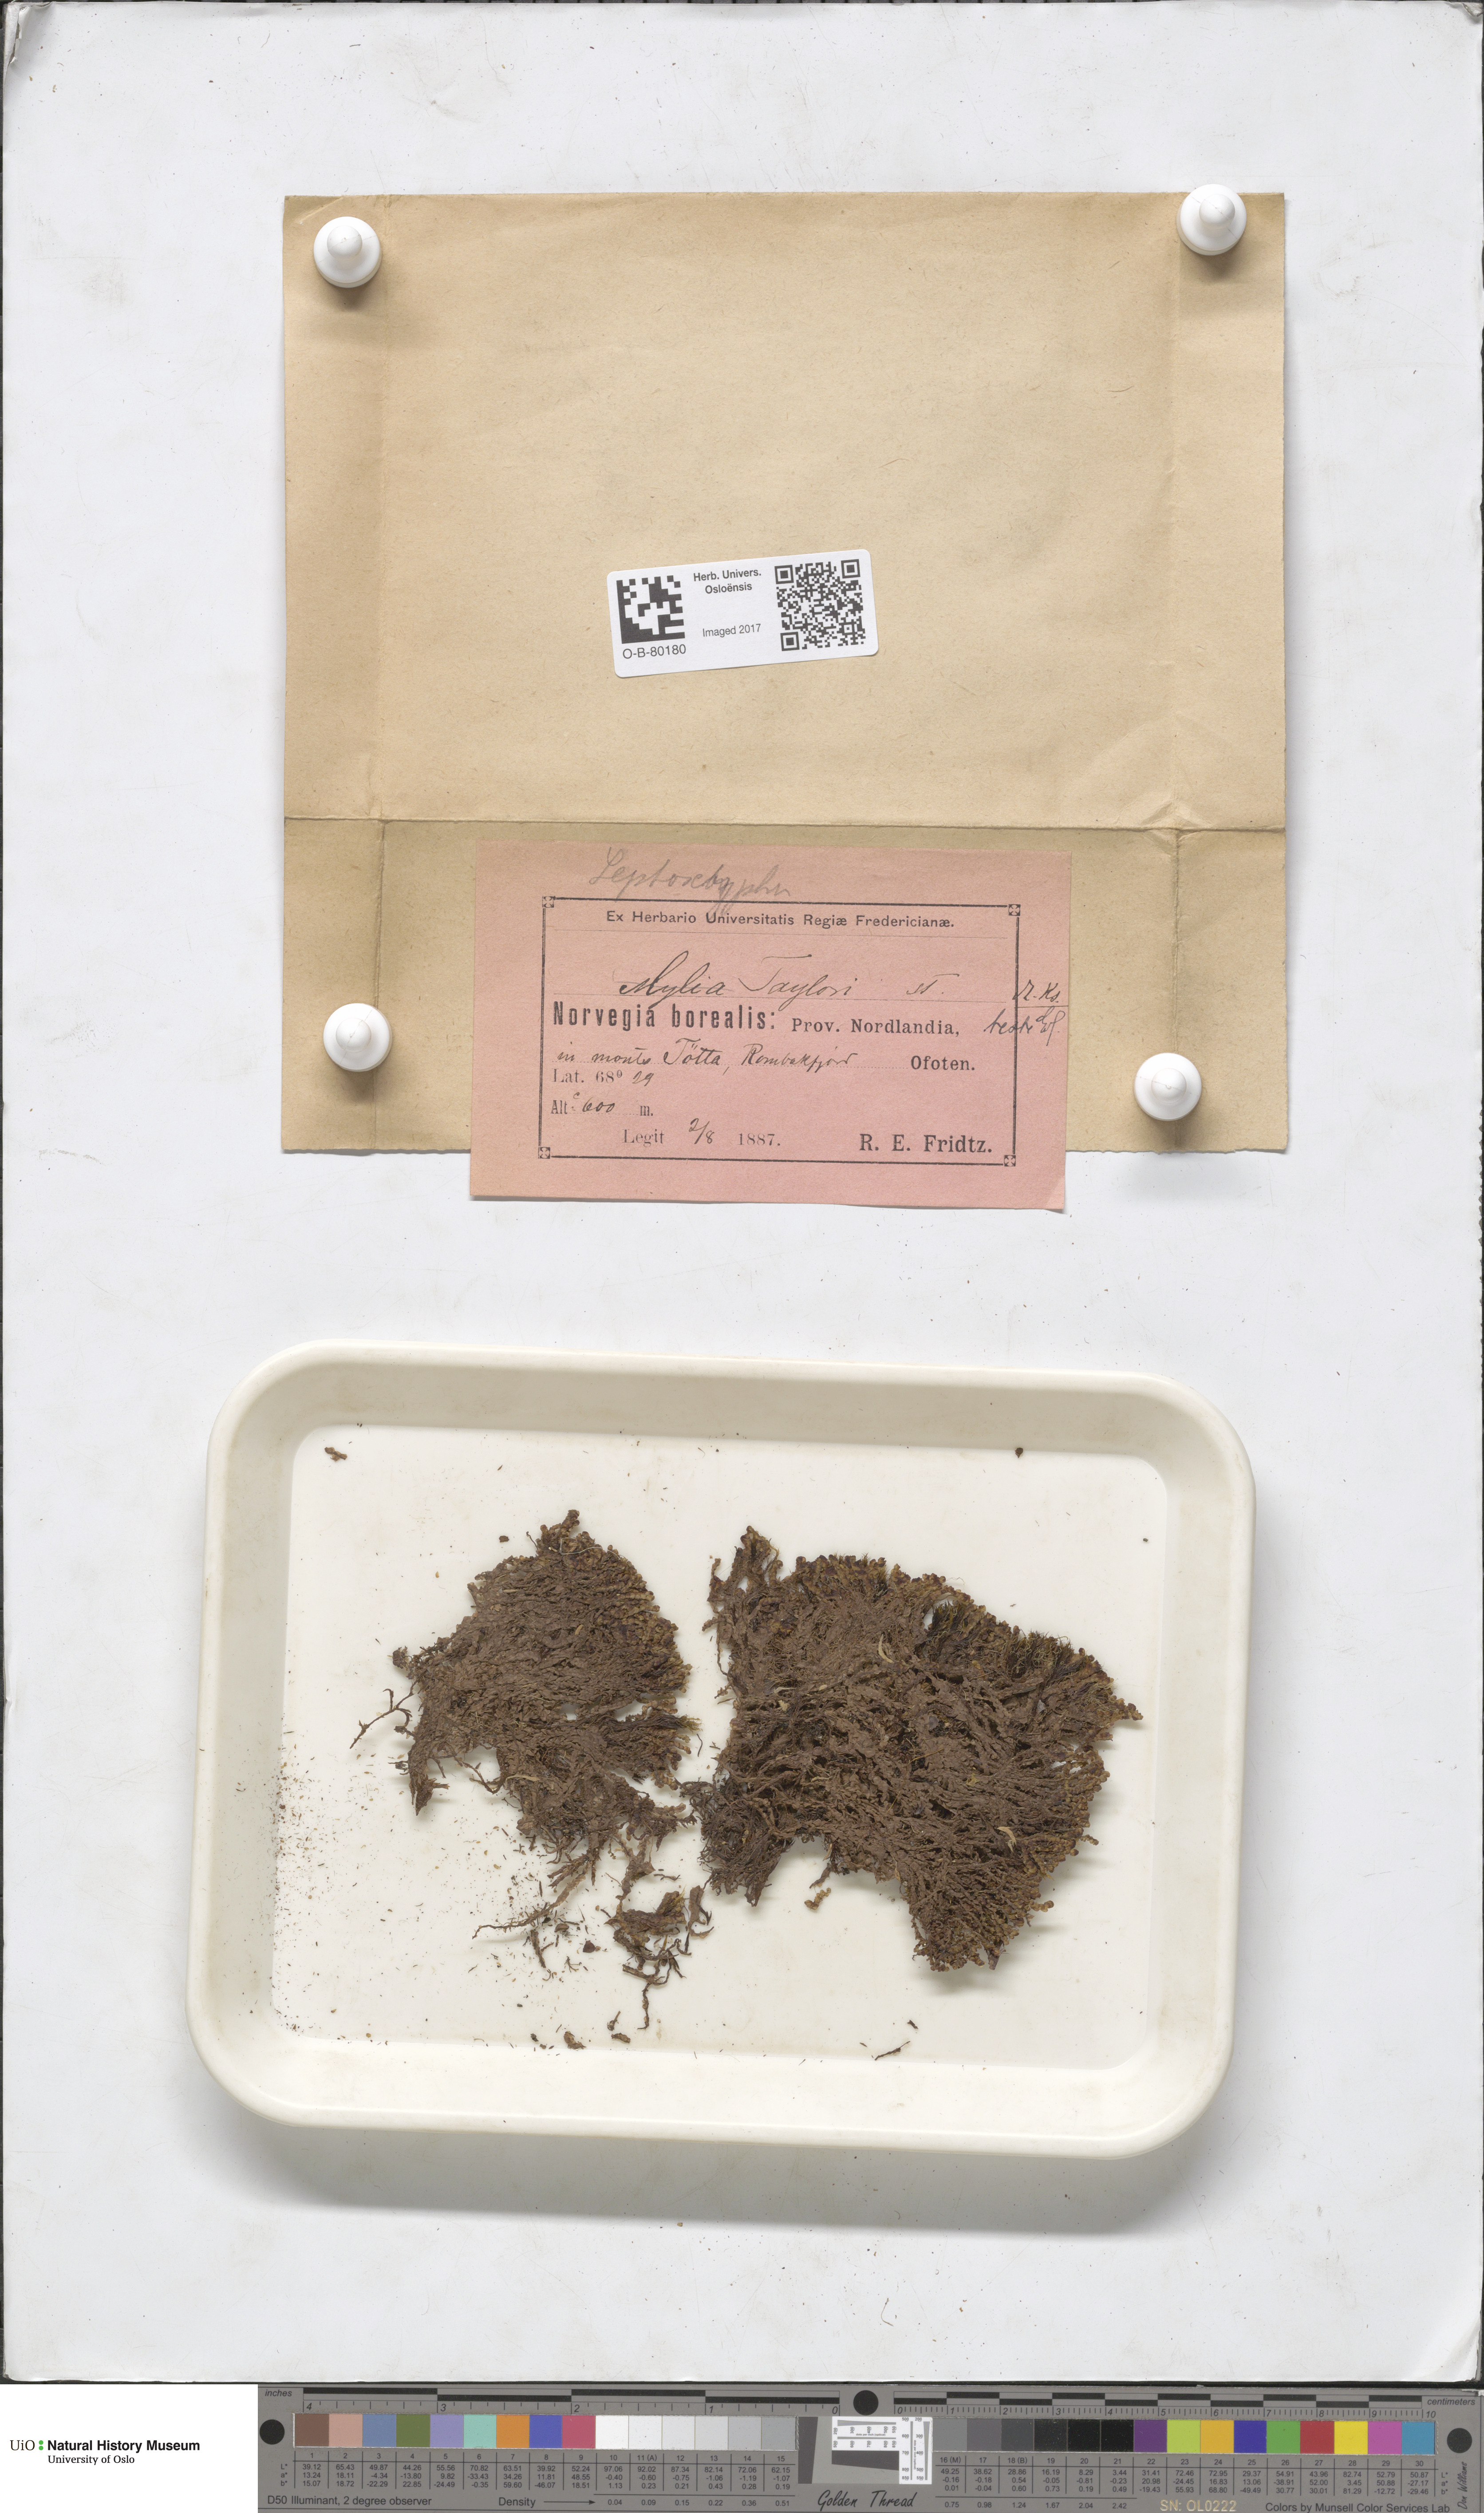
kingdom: Plantae
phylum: Marchantiophyta
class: Jungermanniopsida
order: Jungermanniales
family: Myliaceae
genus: Mylia
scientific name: Mylia taylorii
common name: Taylor s flapwort
